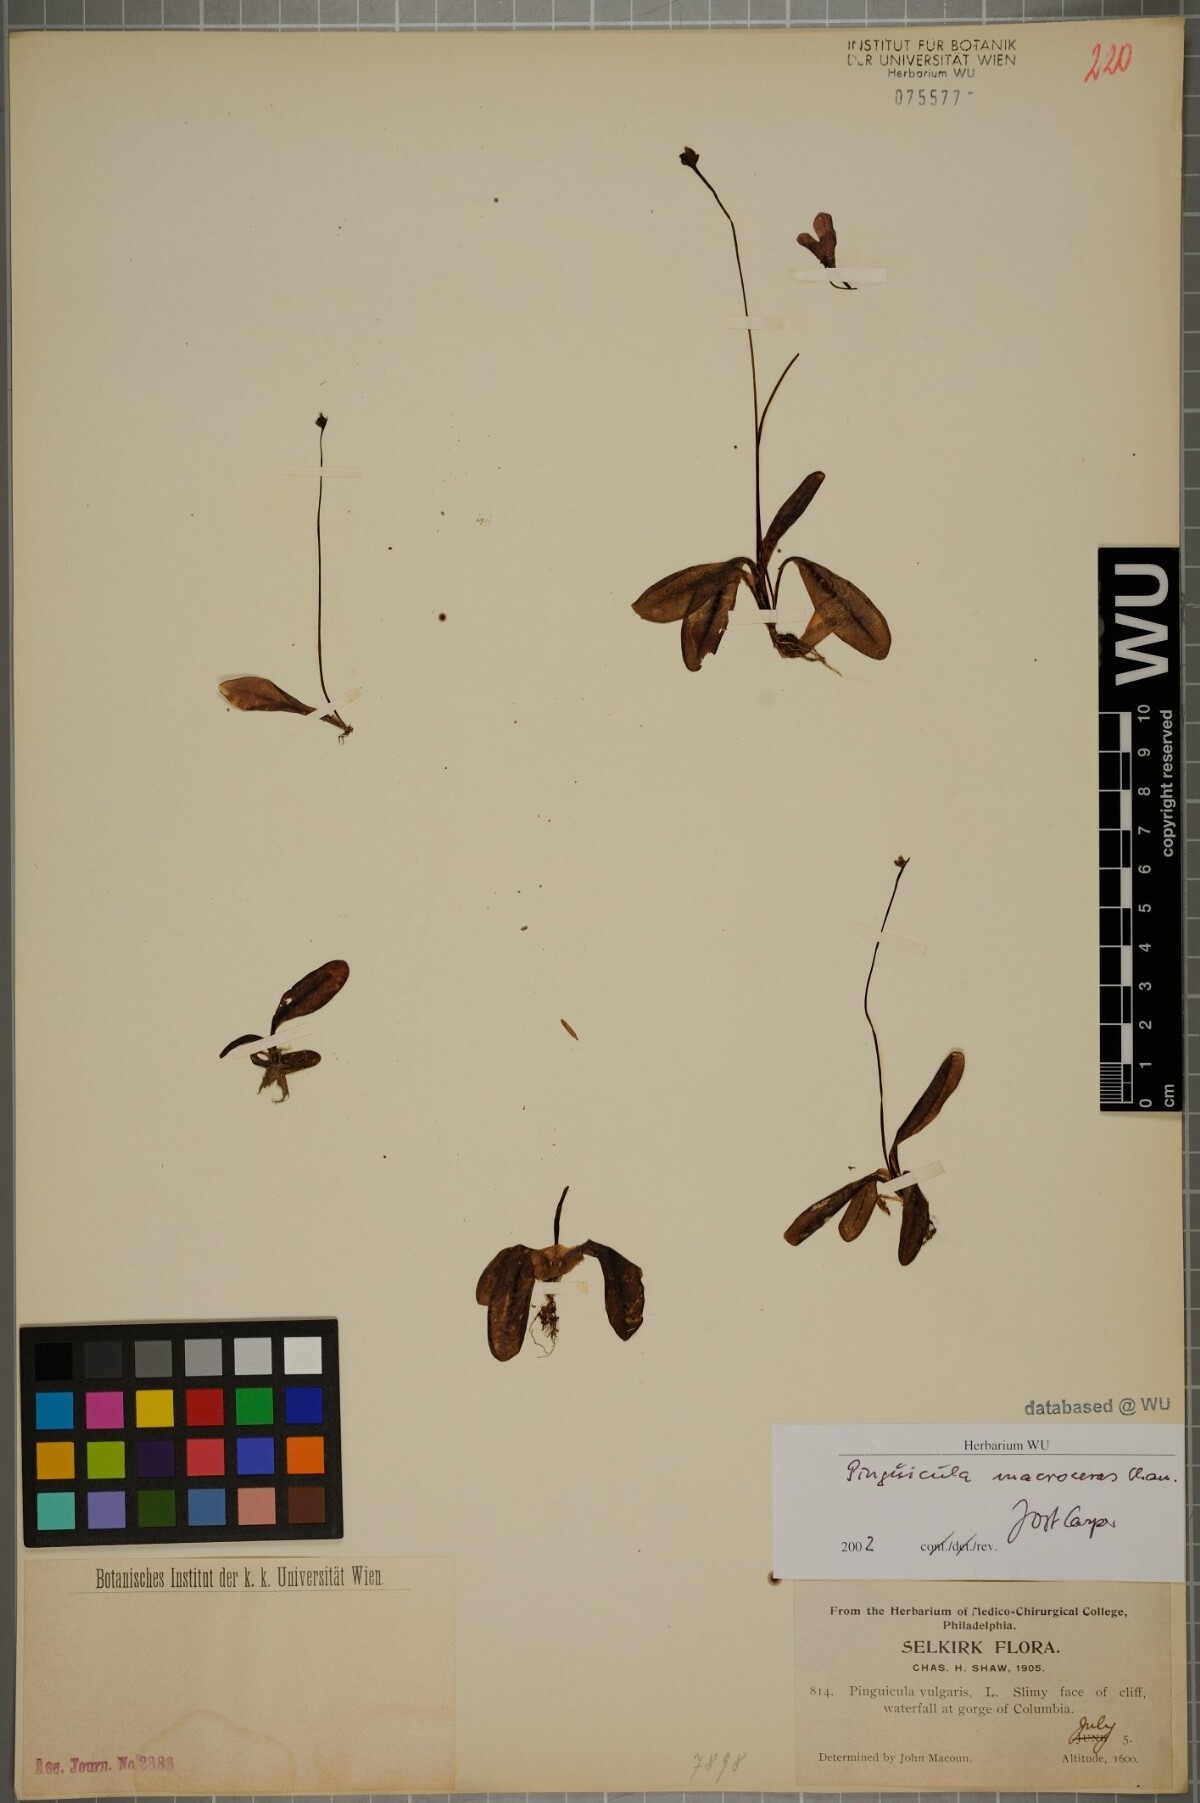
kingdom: Plantae
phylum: Tracheophyta
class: Magnoliopsida
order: Lamiales
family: Lentibulariaceae
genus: Pinguicula
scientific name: Pinguicula macroceras
